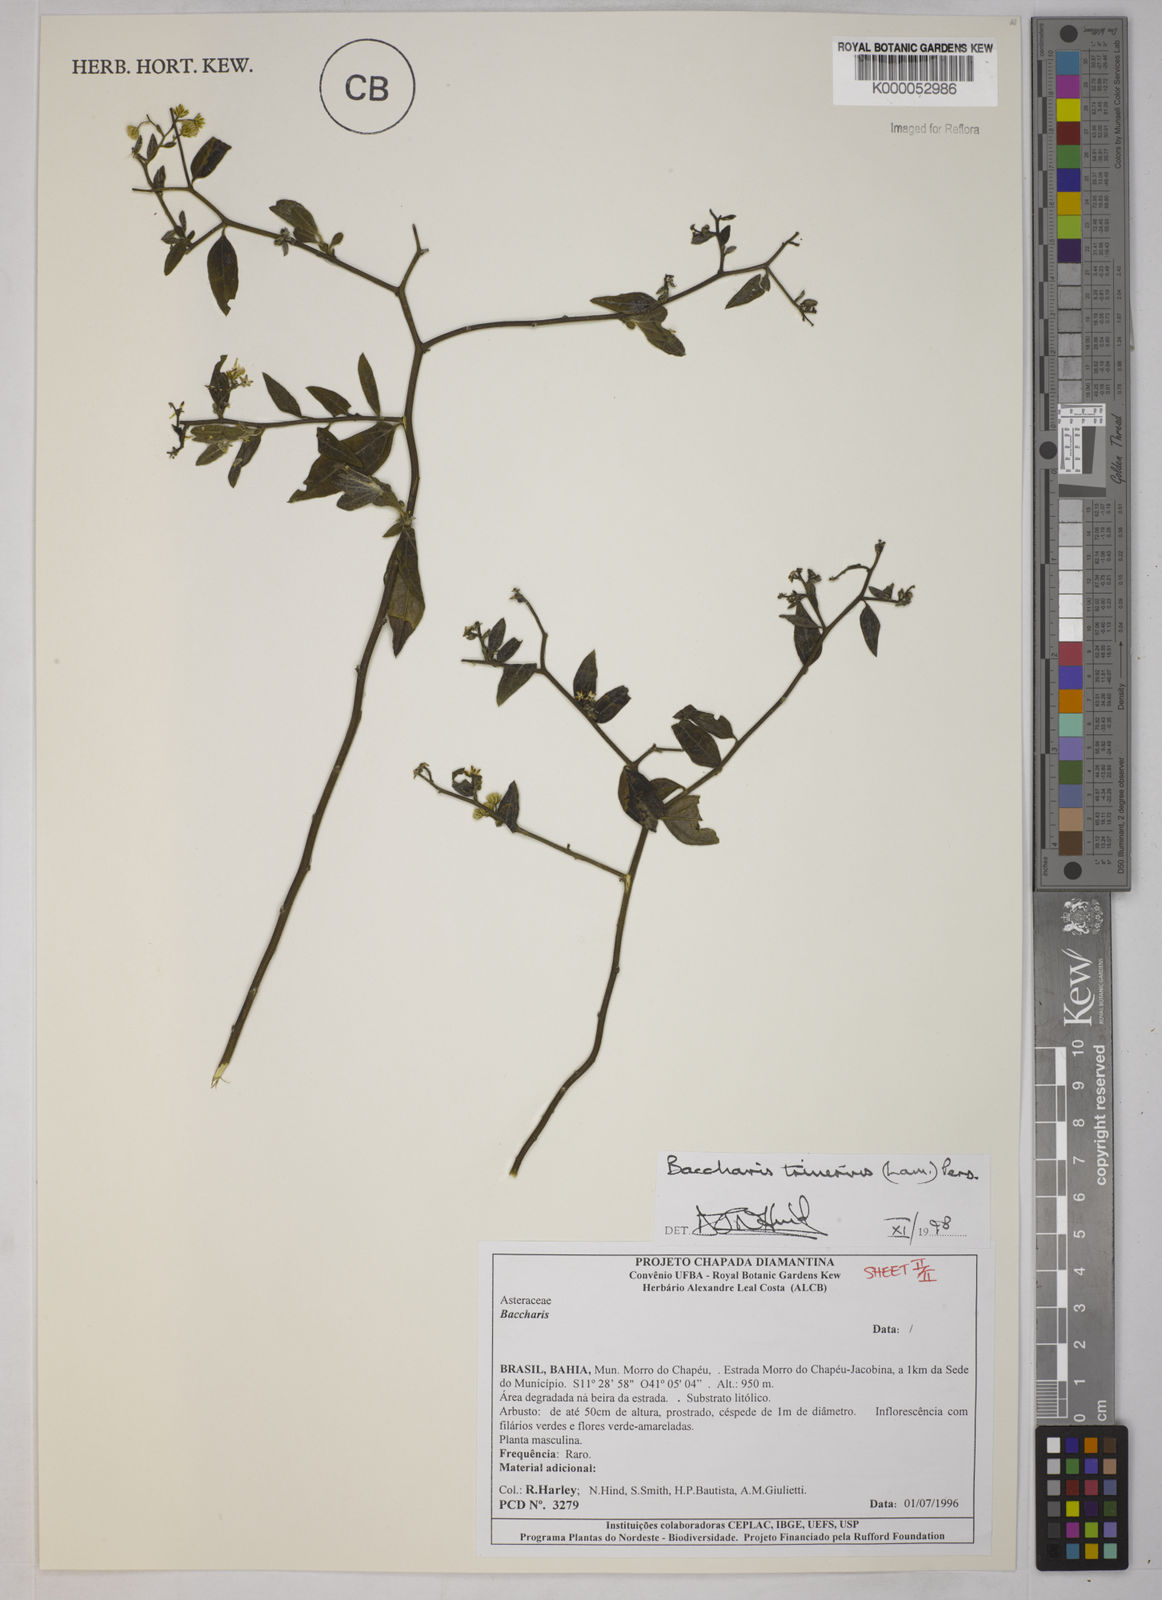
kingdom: Plantae
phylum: Tracheophyta
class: Magnoliopsida
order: Asterales
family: Asteraceae
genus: Baccharis
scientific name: Baccharis trinervis
